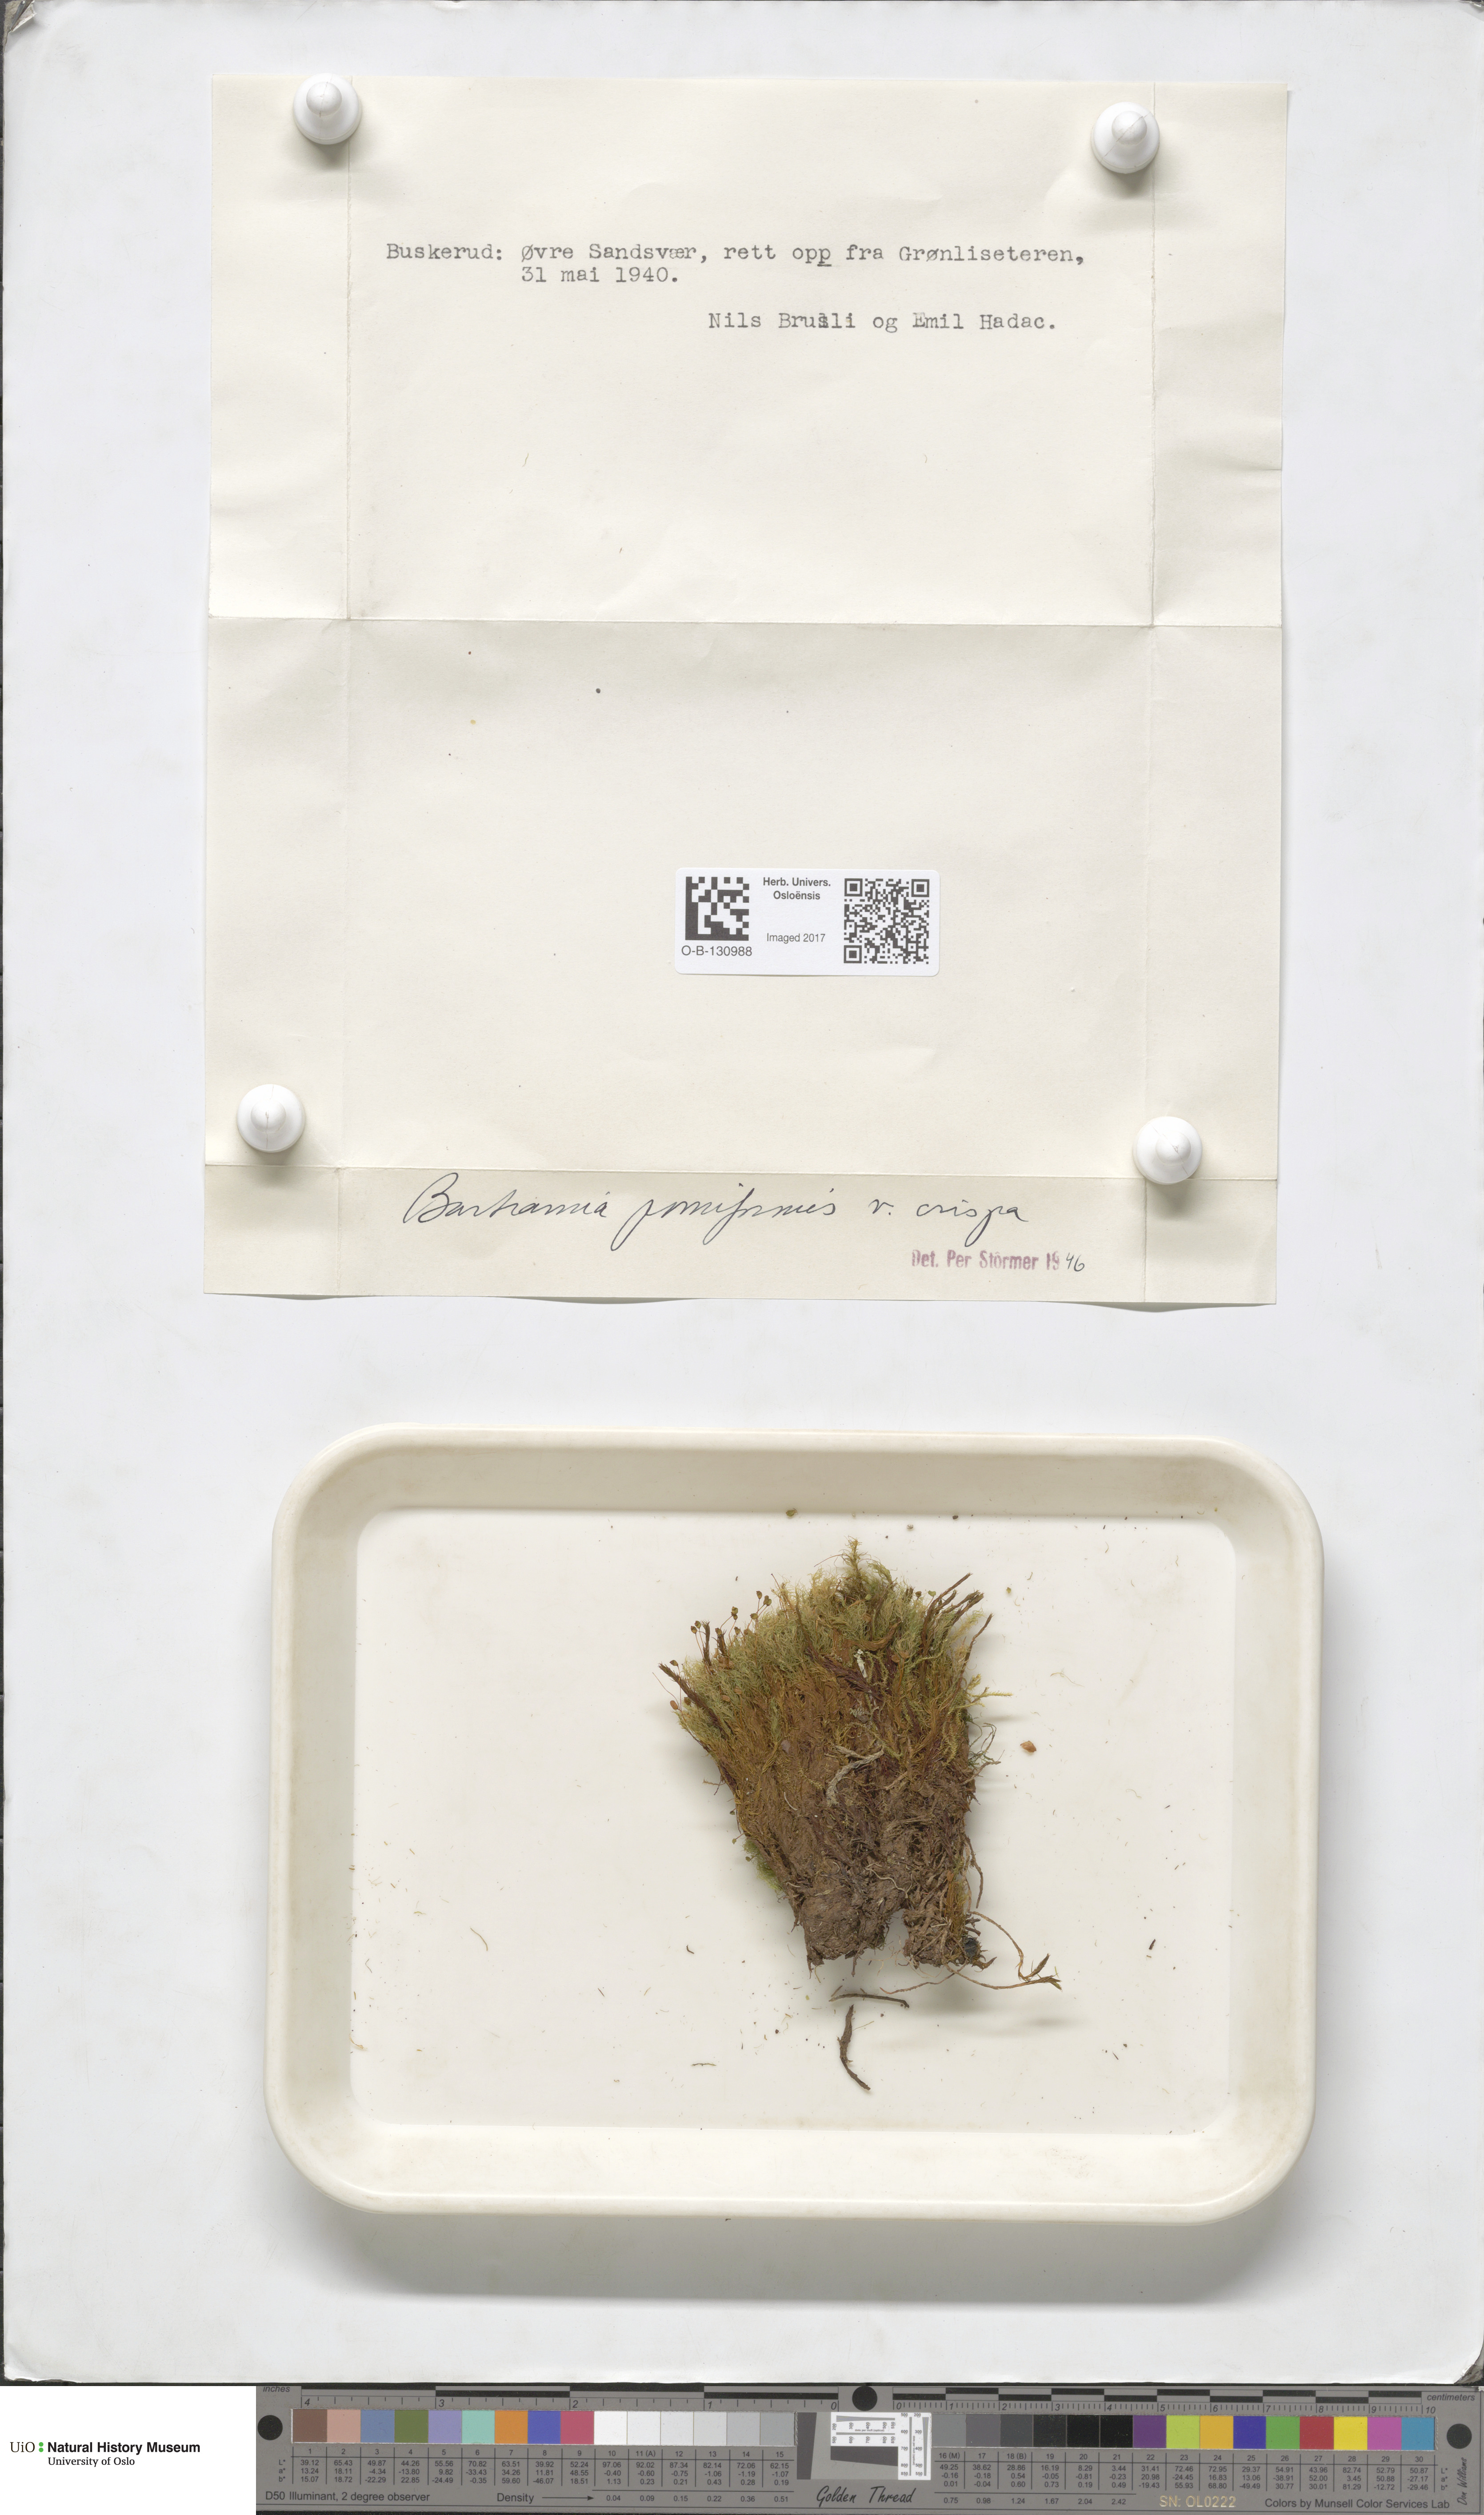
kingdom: Plantae
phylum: Bryophyta
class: Bryopsida
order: Bartramiales
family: Bartramiaceae
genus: Bartramia
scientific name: Bartramia pomiformis
